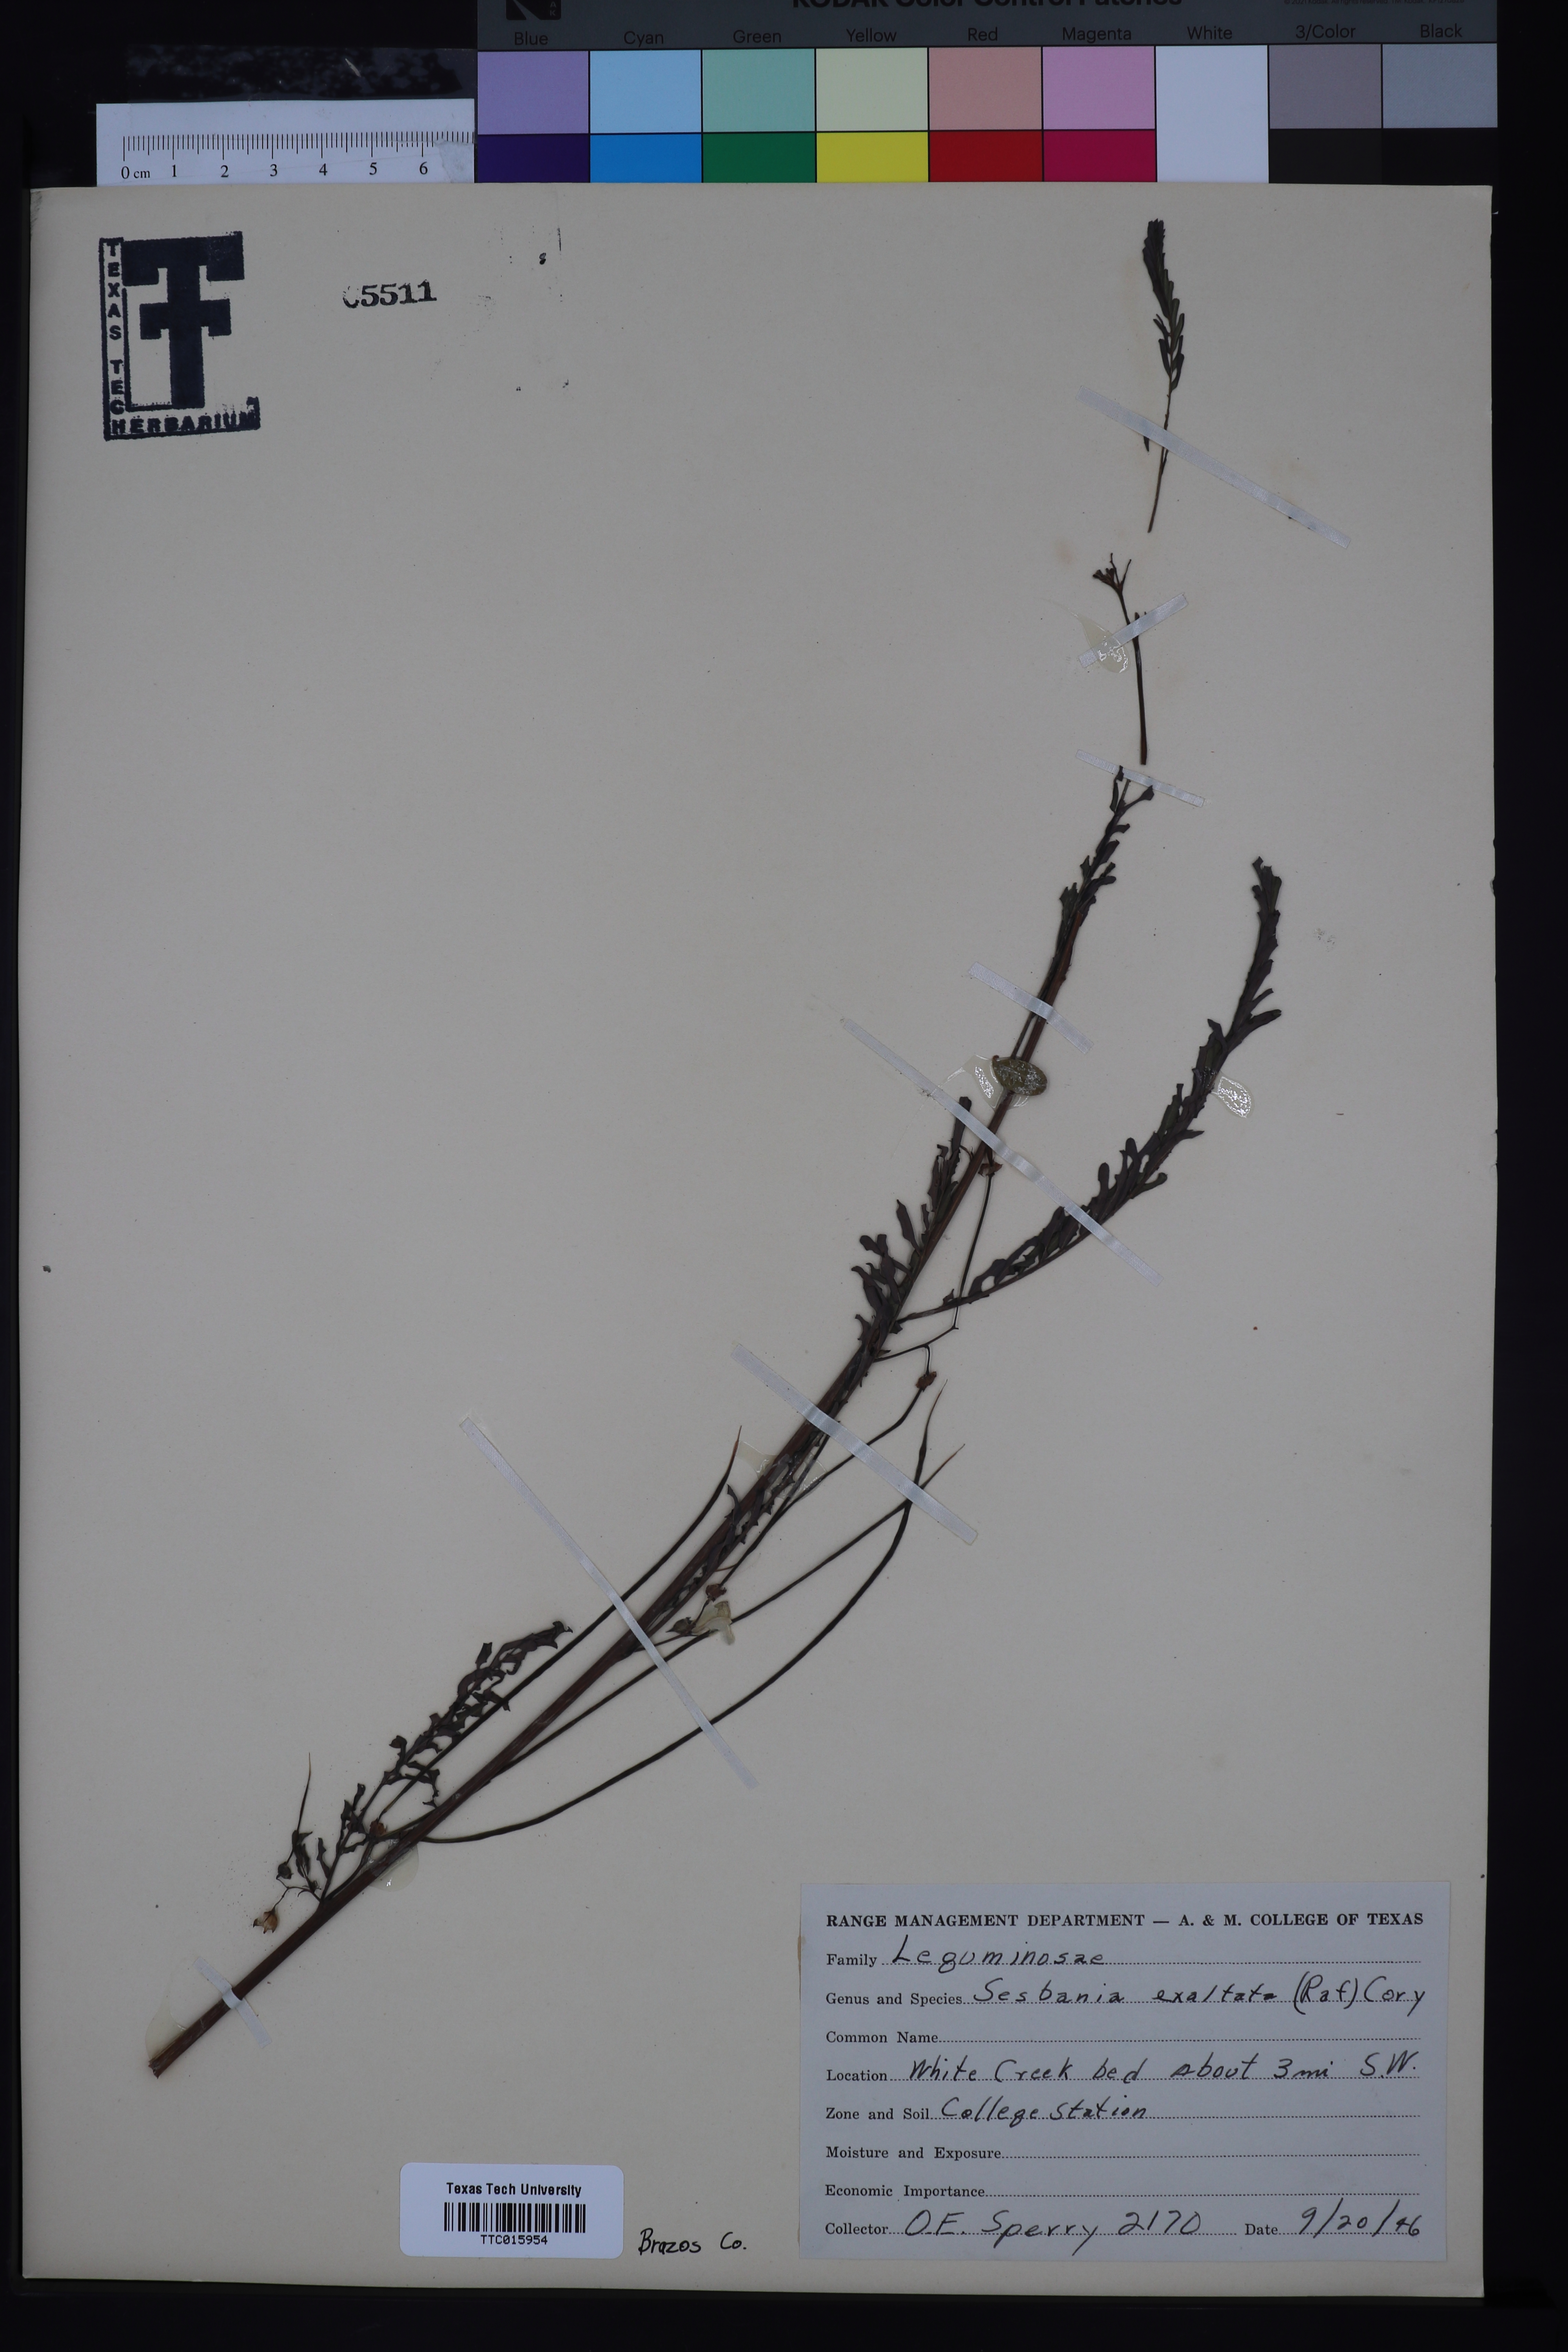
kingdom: Plantae
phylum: Tracheophyta
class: Magnoliopsida
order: Fabales
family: Fabaceae
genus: Sesbania
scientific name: Sesbania herbacea
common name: Bigpod sesbania
